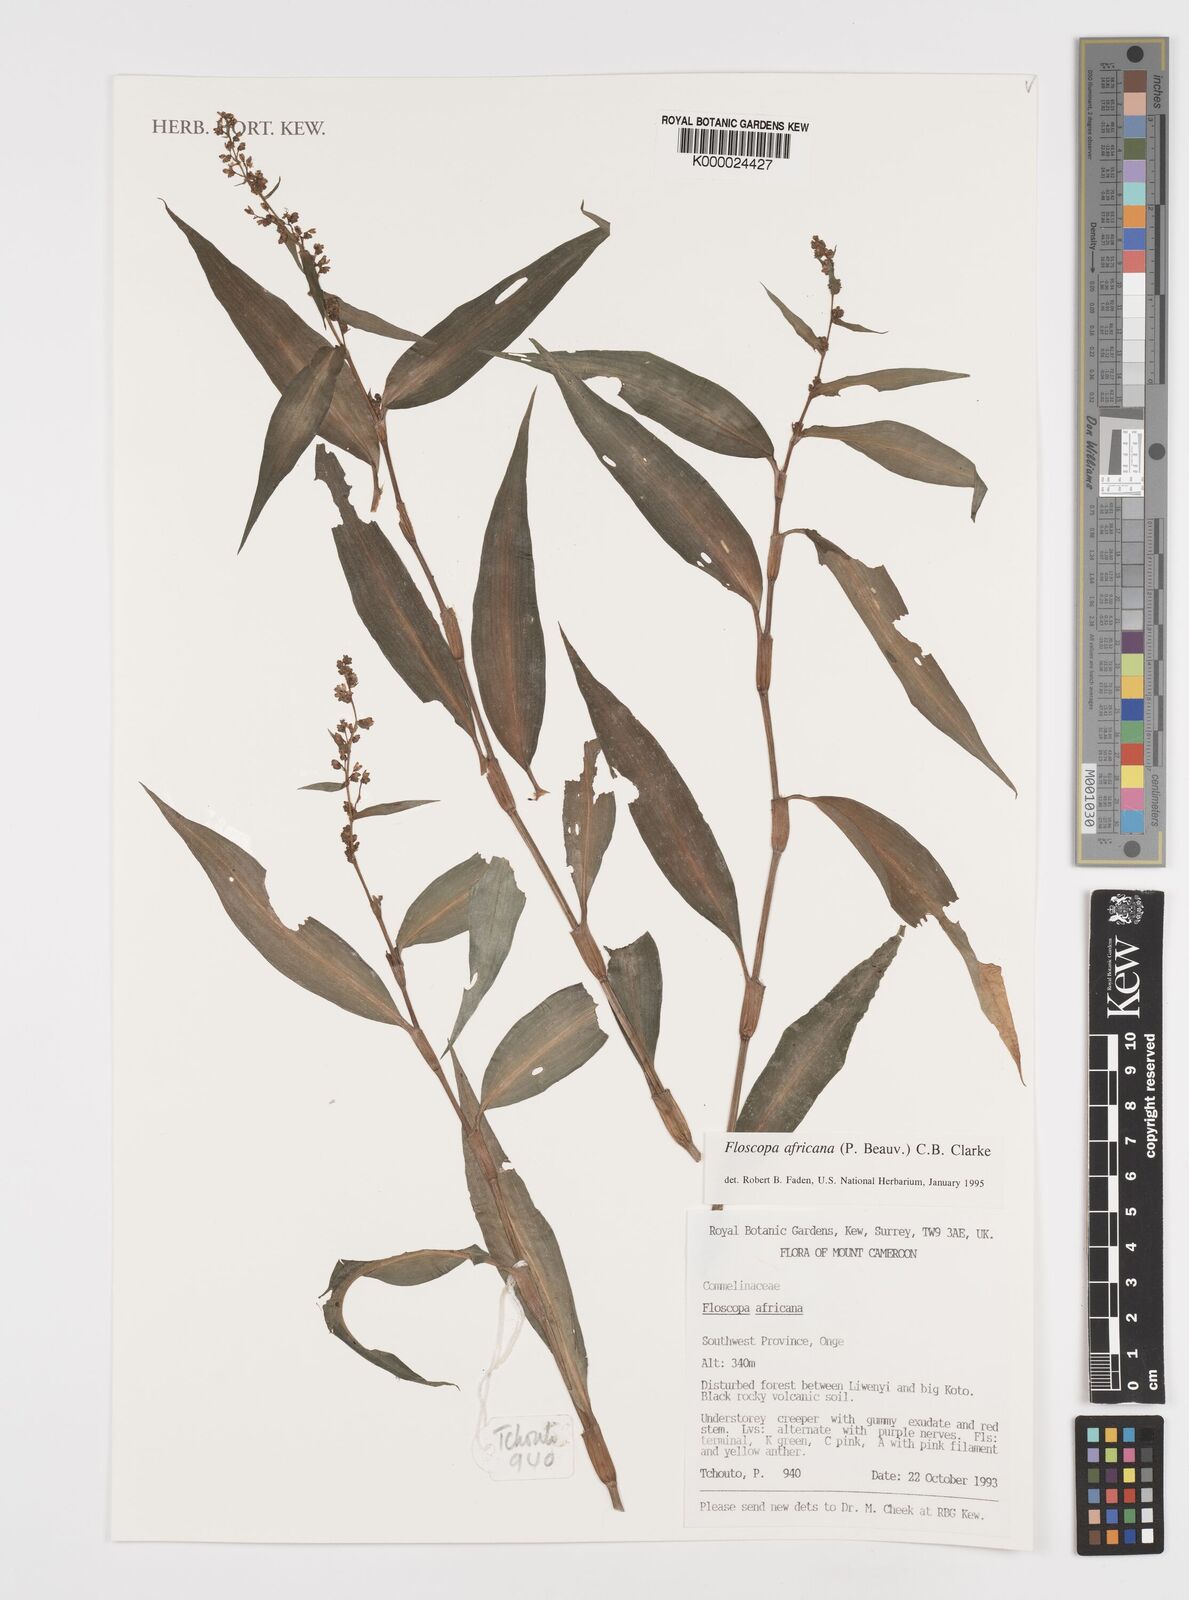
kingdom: Plantae
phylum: Tracheophyta
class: Liliopsida
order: Commelinales
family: Commelinaceae
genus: Floscopa
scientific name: Floscopa africana
